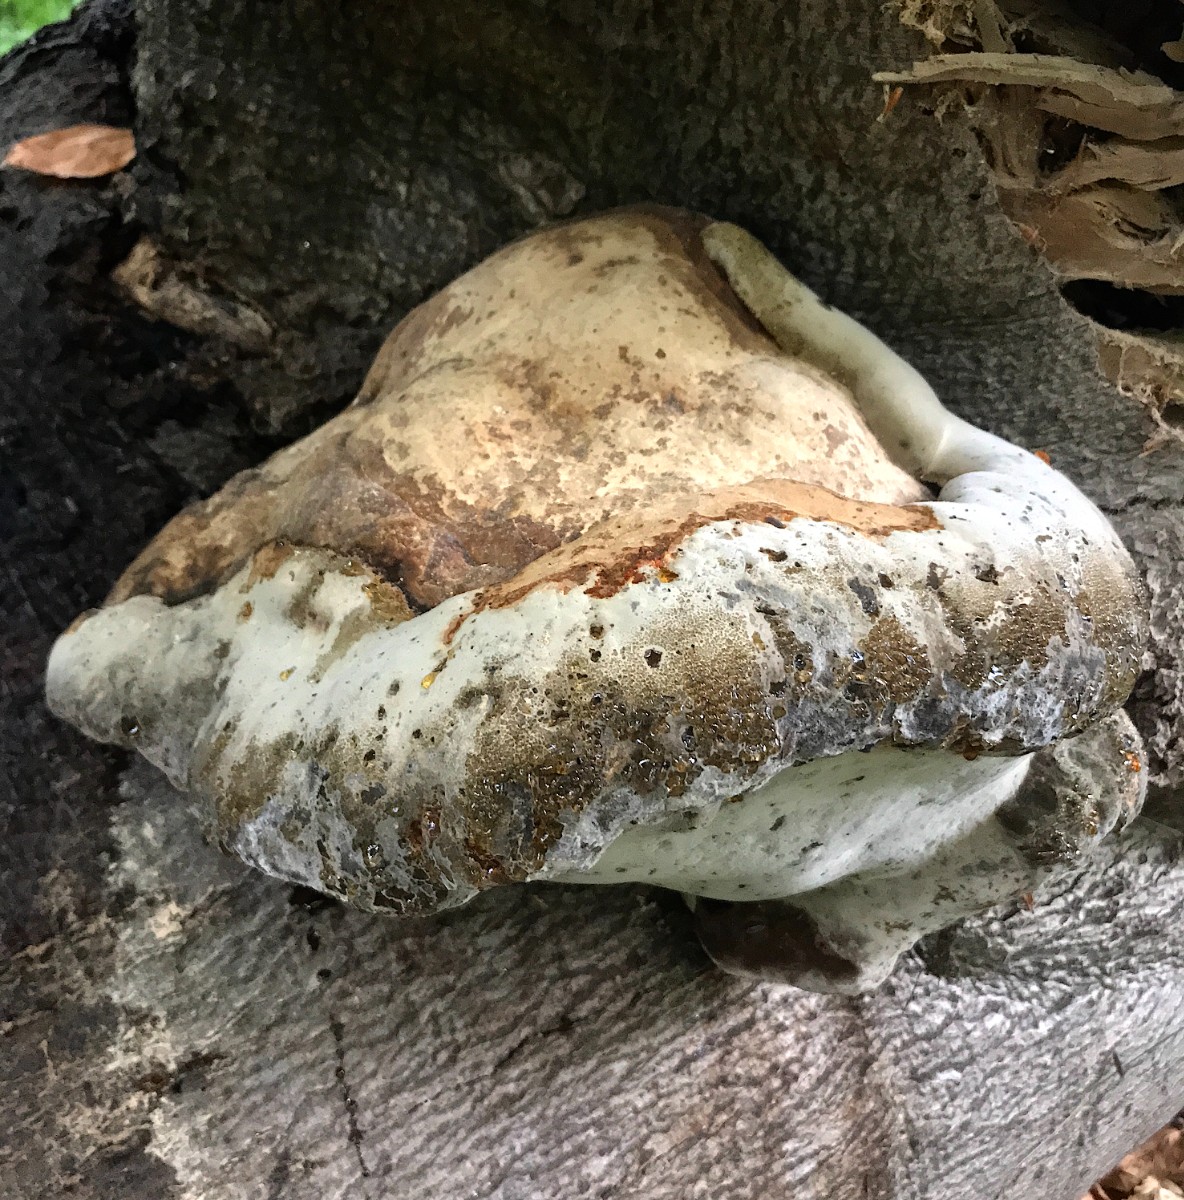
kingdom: Fungi
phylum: Basidiomycota
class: Agaricomycetes
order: Polyporales
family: Polyporaceae
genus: Fomes
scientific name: Fomes fomentarius
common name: tøndersvamp
